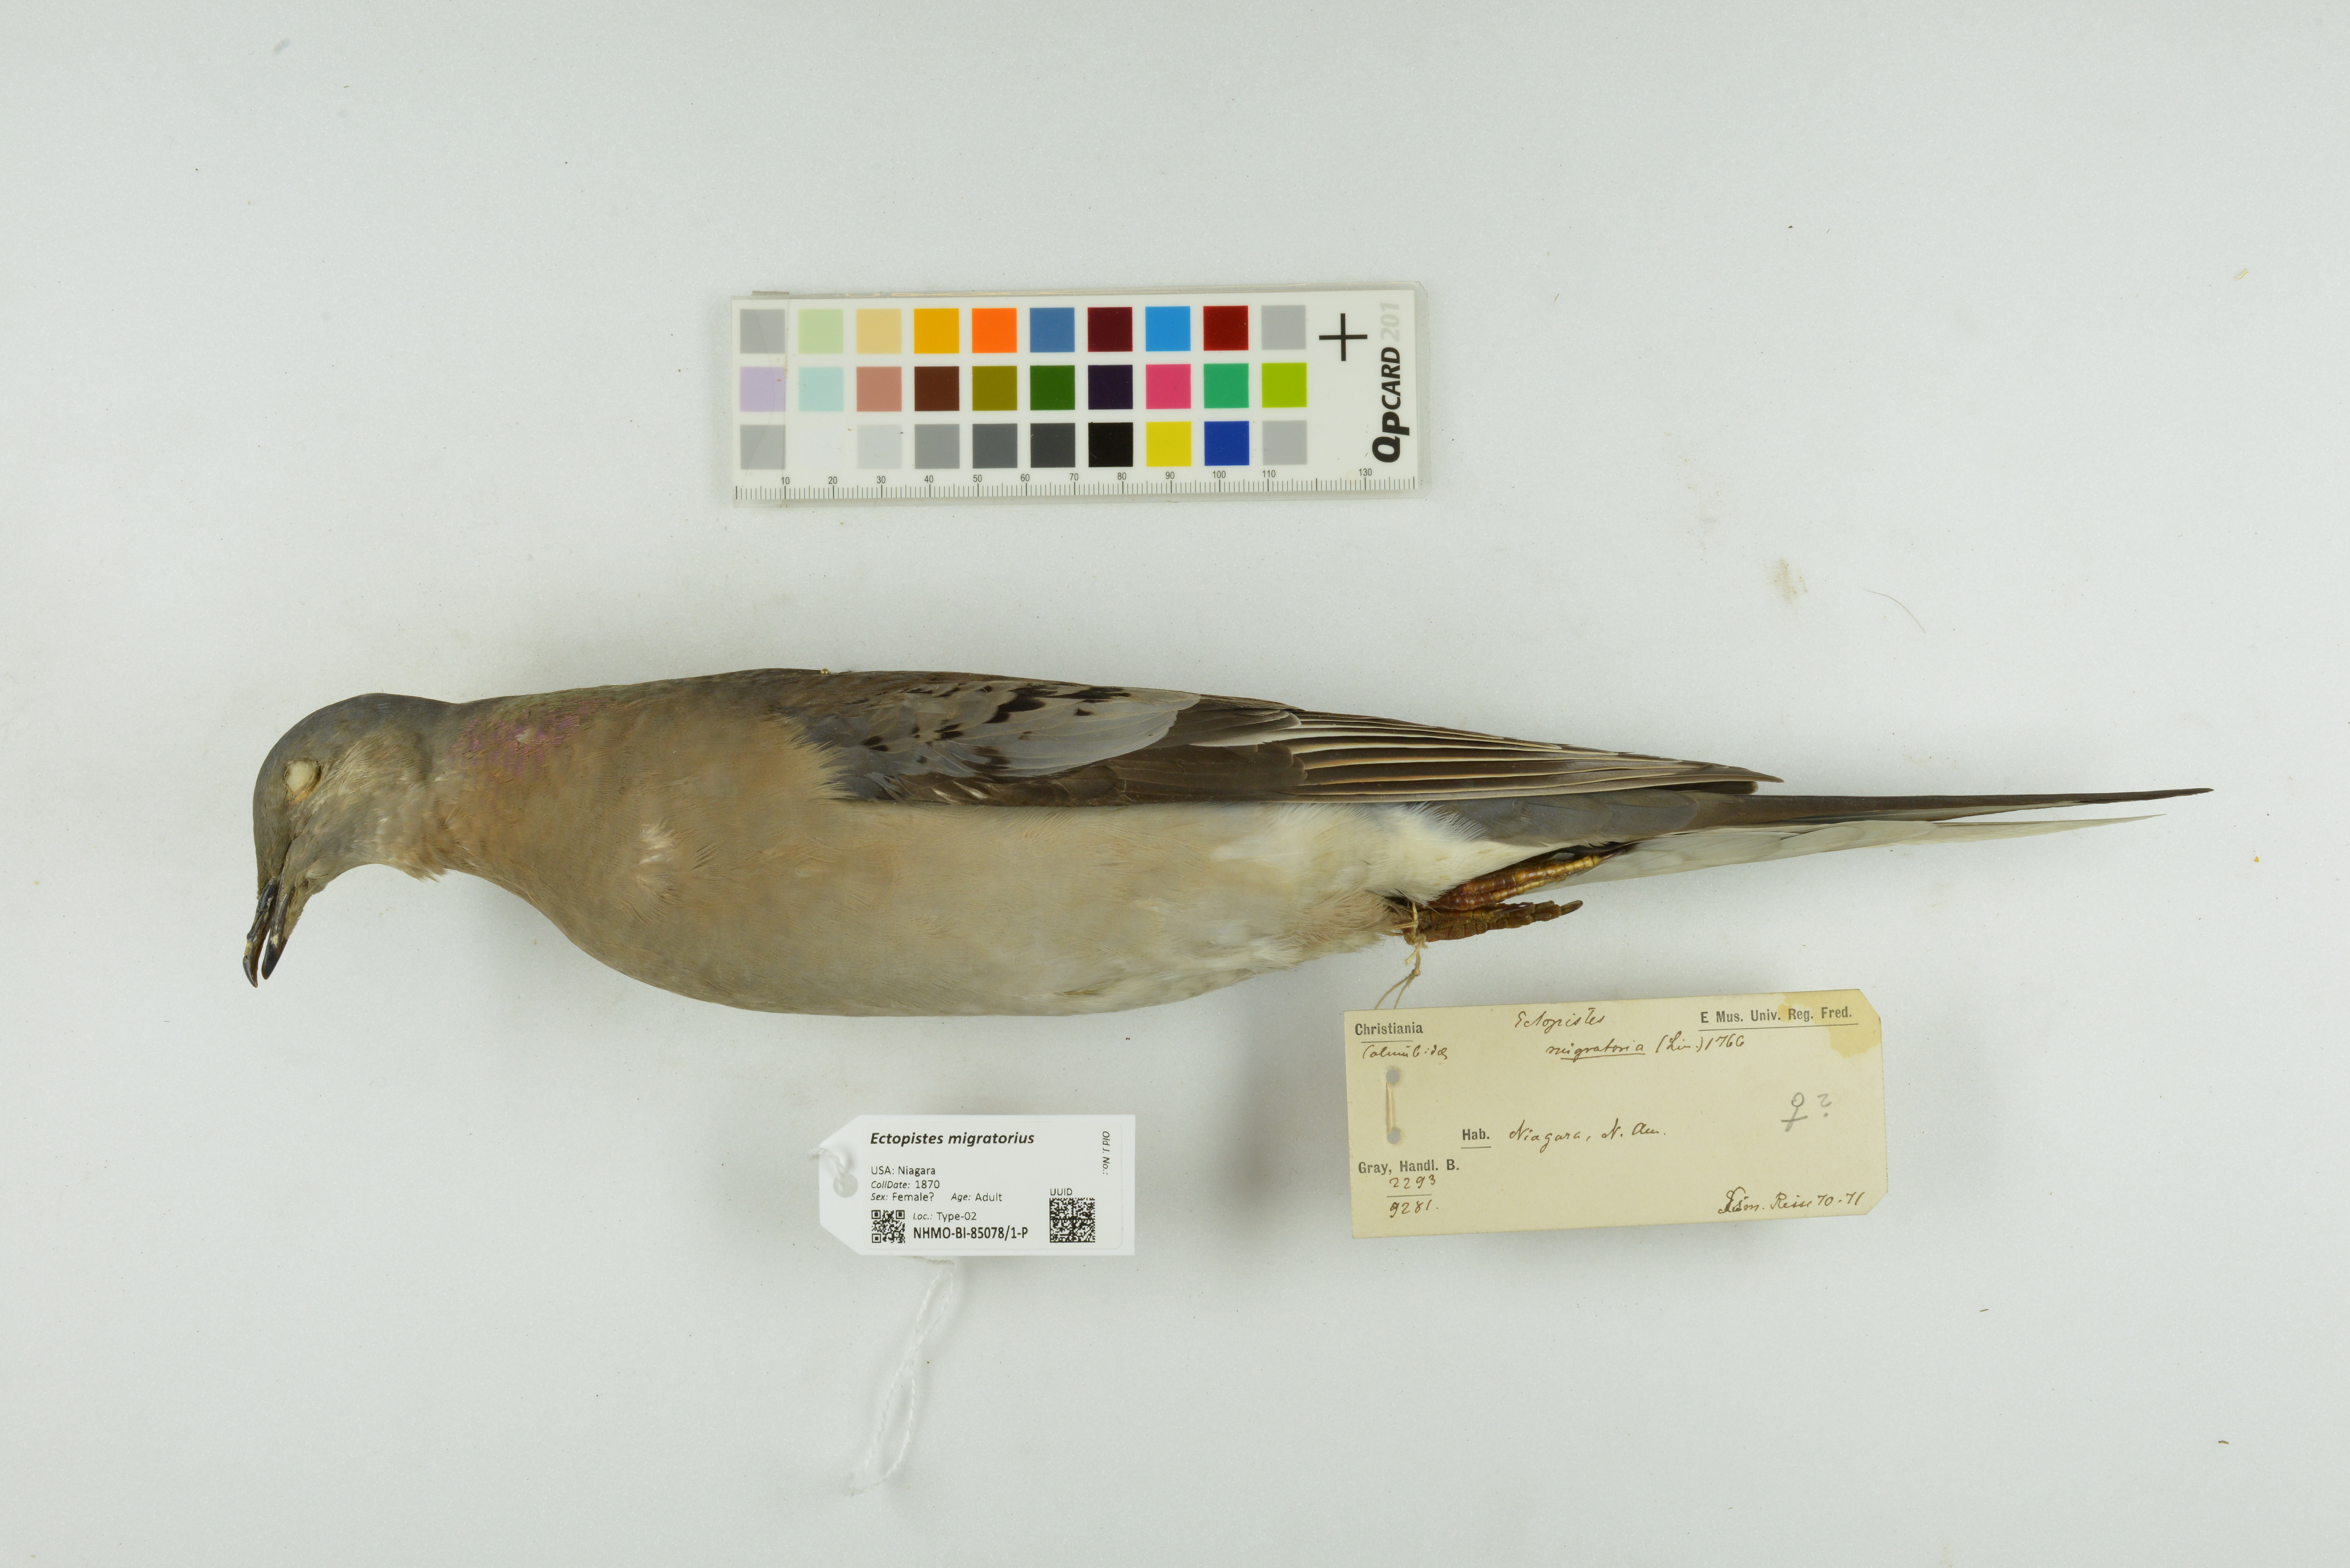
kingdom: Animalia
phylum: Chordata
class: Aves
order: Columbiformes
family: Columbidae
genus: Ectopistes
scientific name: Ectopistes migratorius
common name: Passenger pigeon
